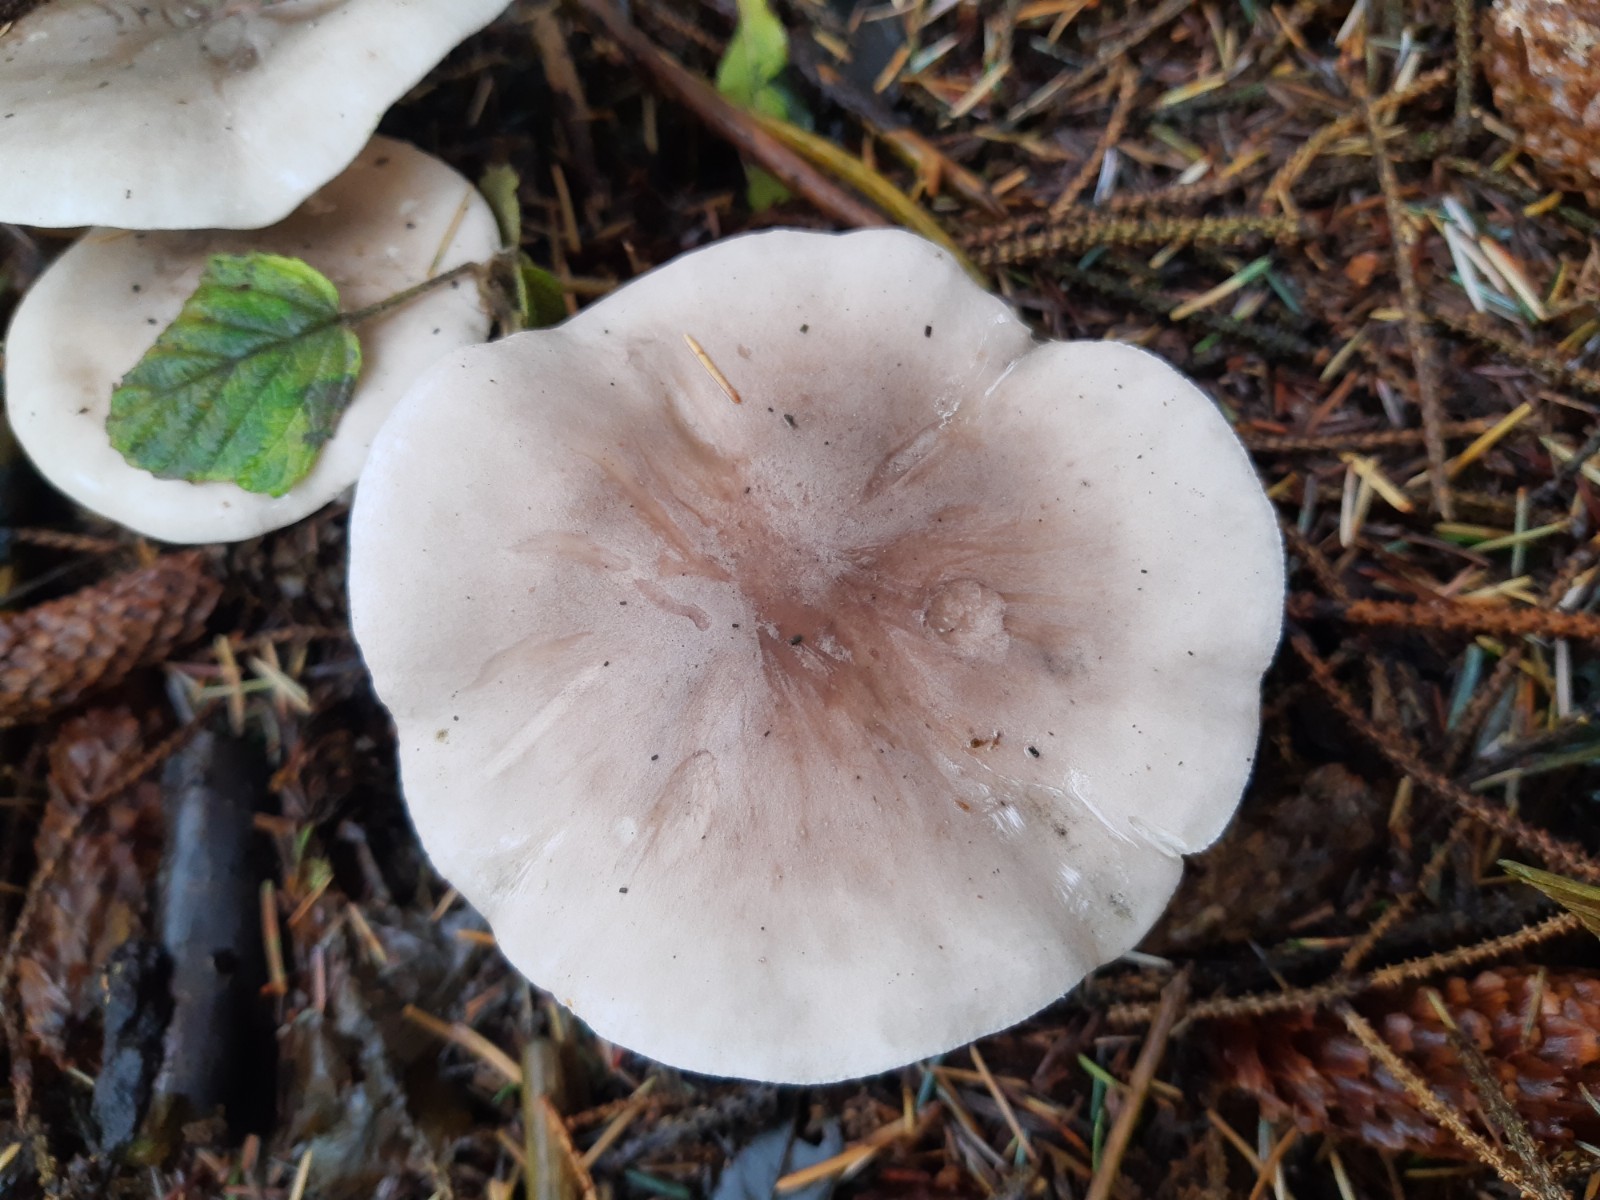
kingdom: Fungi
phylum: Basidiomycota
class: Agaricomycetes
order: Agaricales
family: Tricholomataceae
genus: Clitocybe
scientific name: Clitocybe nebularis
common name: tåge-tragthat
